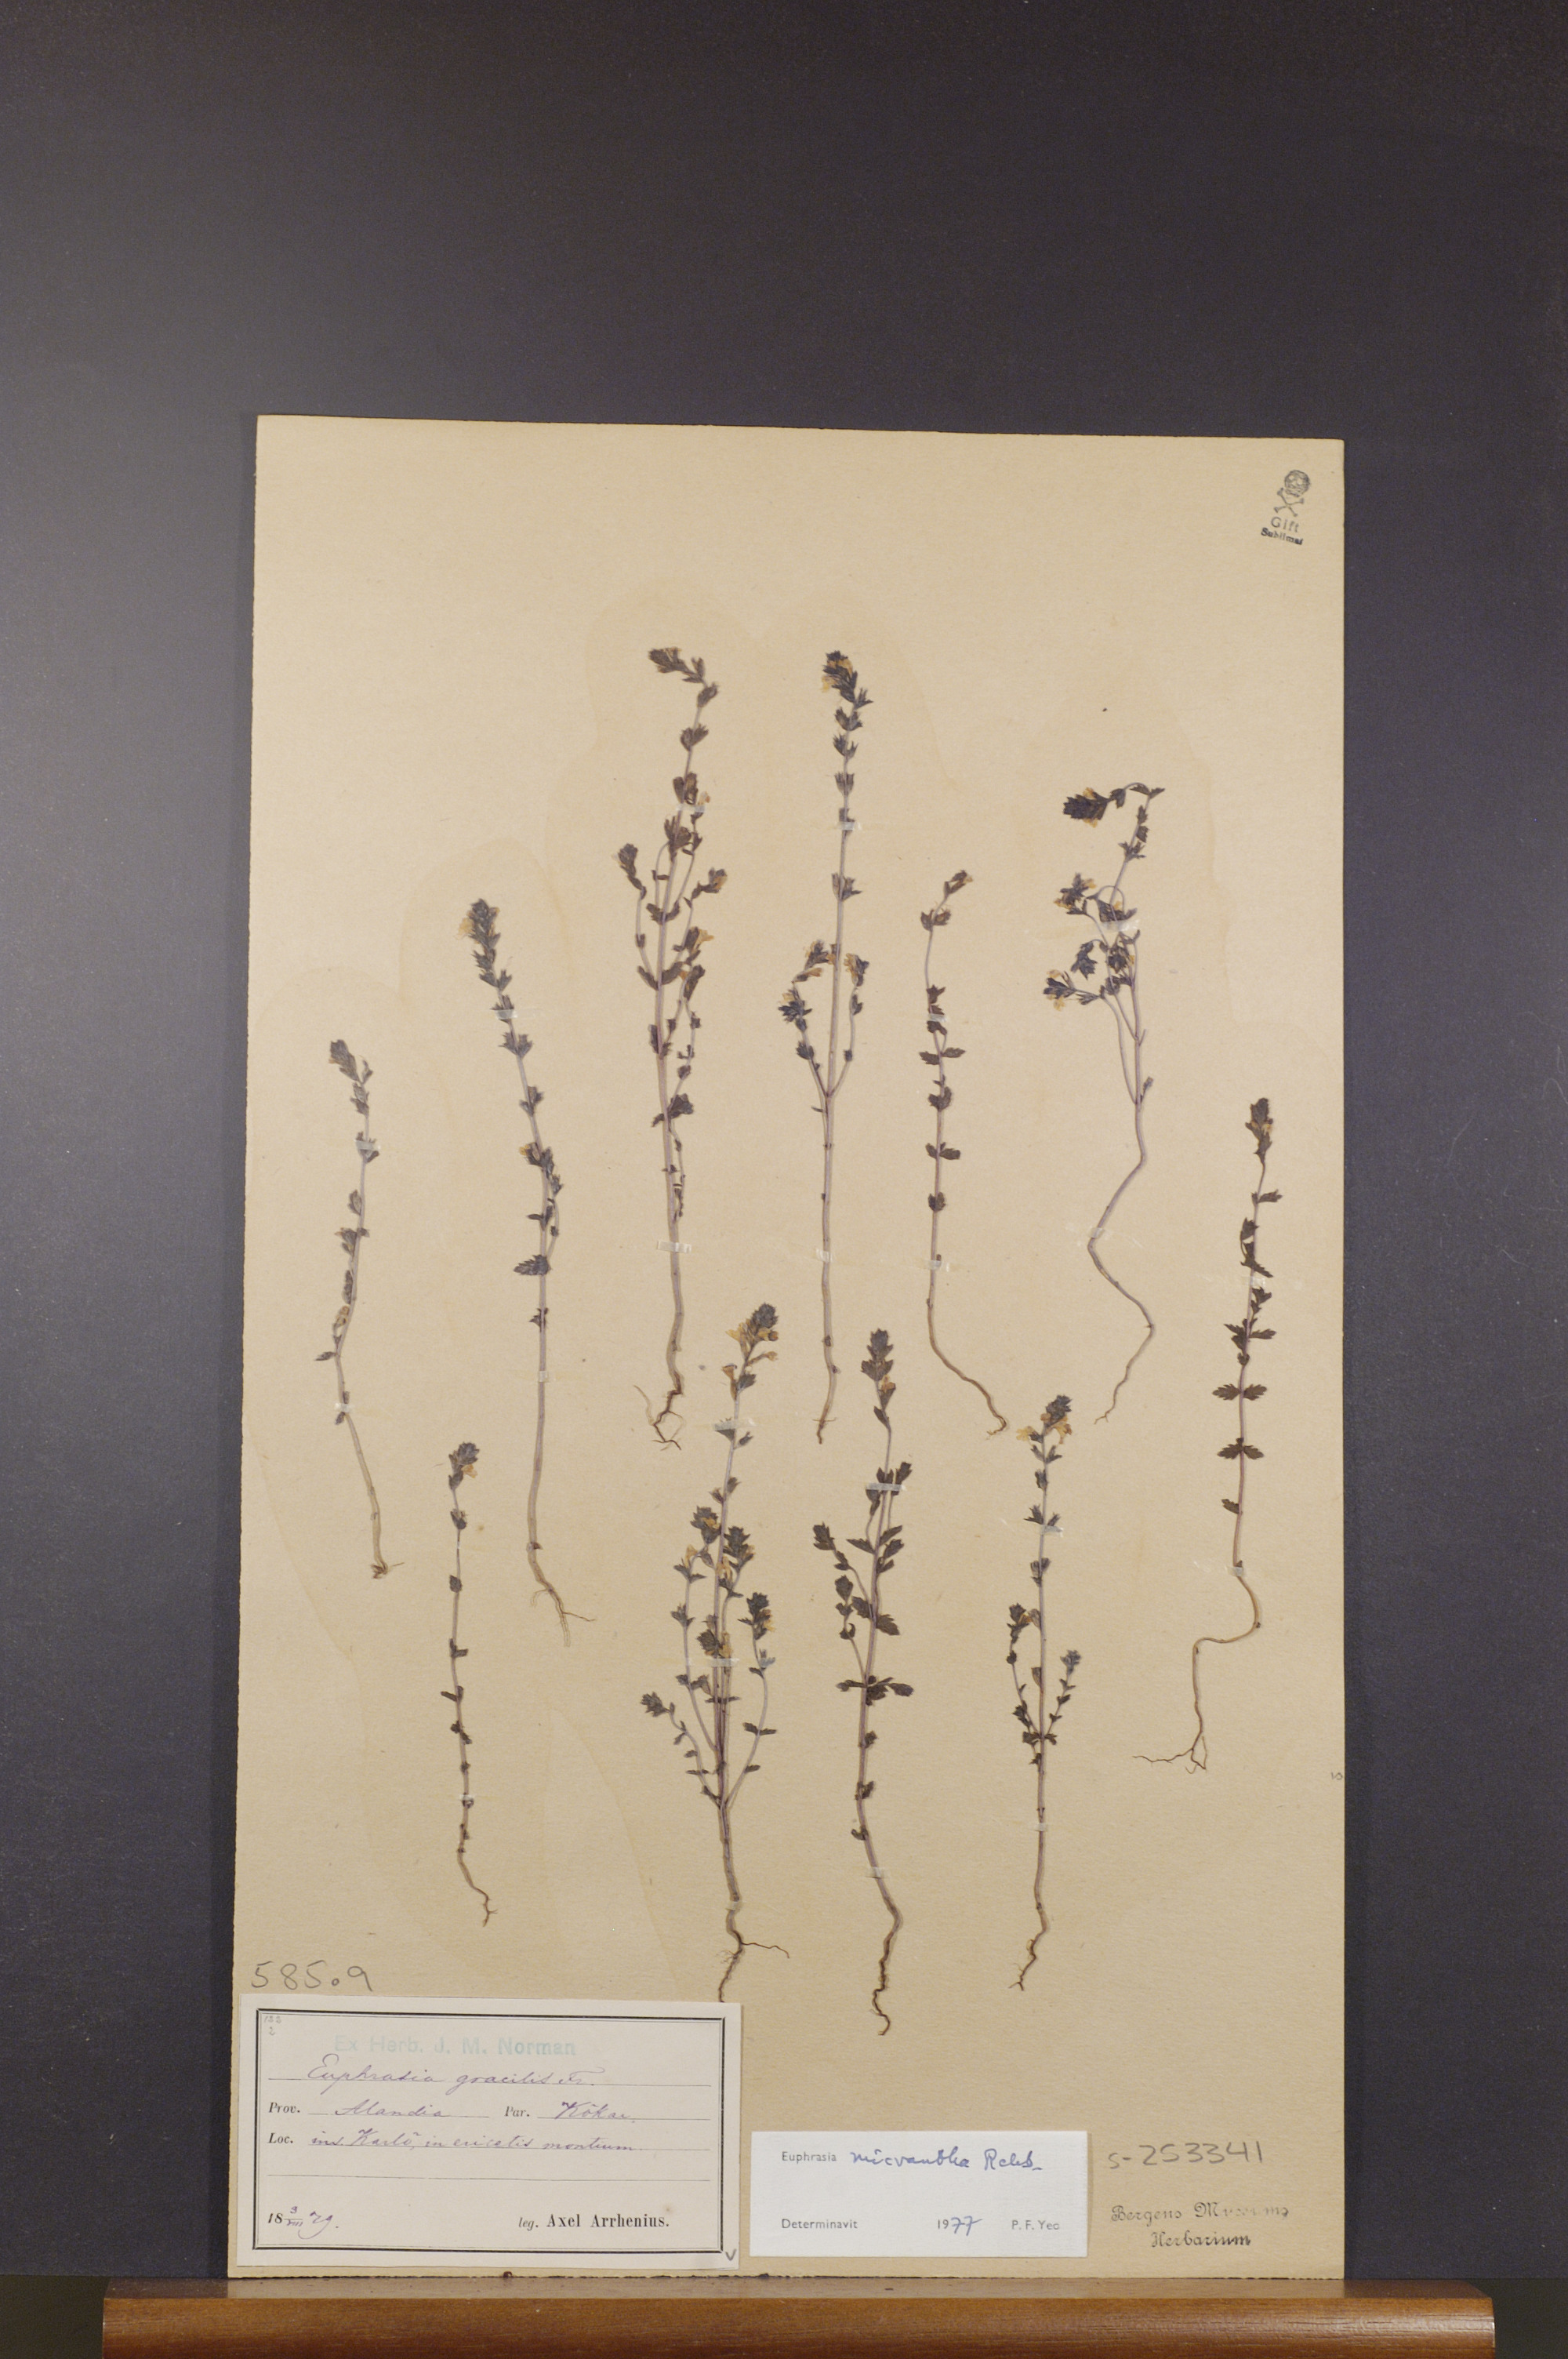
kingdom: Plantae
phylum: Tracheophyta
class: Magnoliopsida
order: Lamiales
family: Orobanchaceae
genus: Euphrasia
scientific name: Euphrasia micrantha
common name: Northern eyebright
